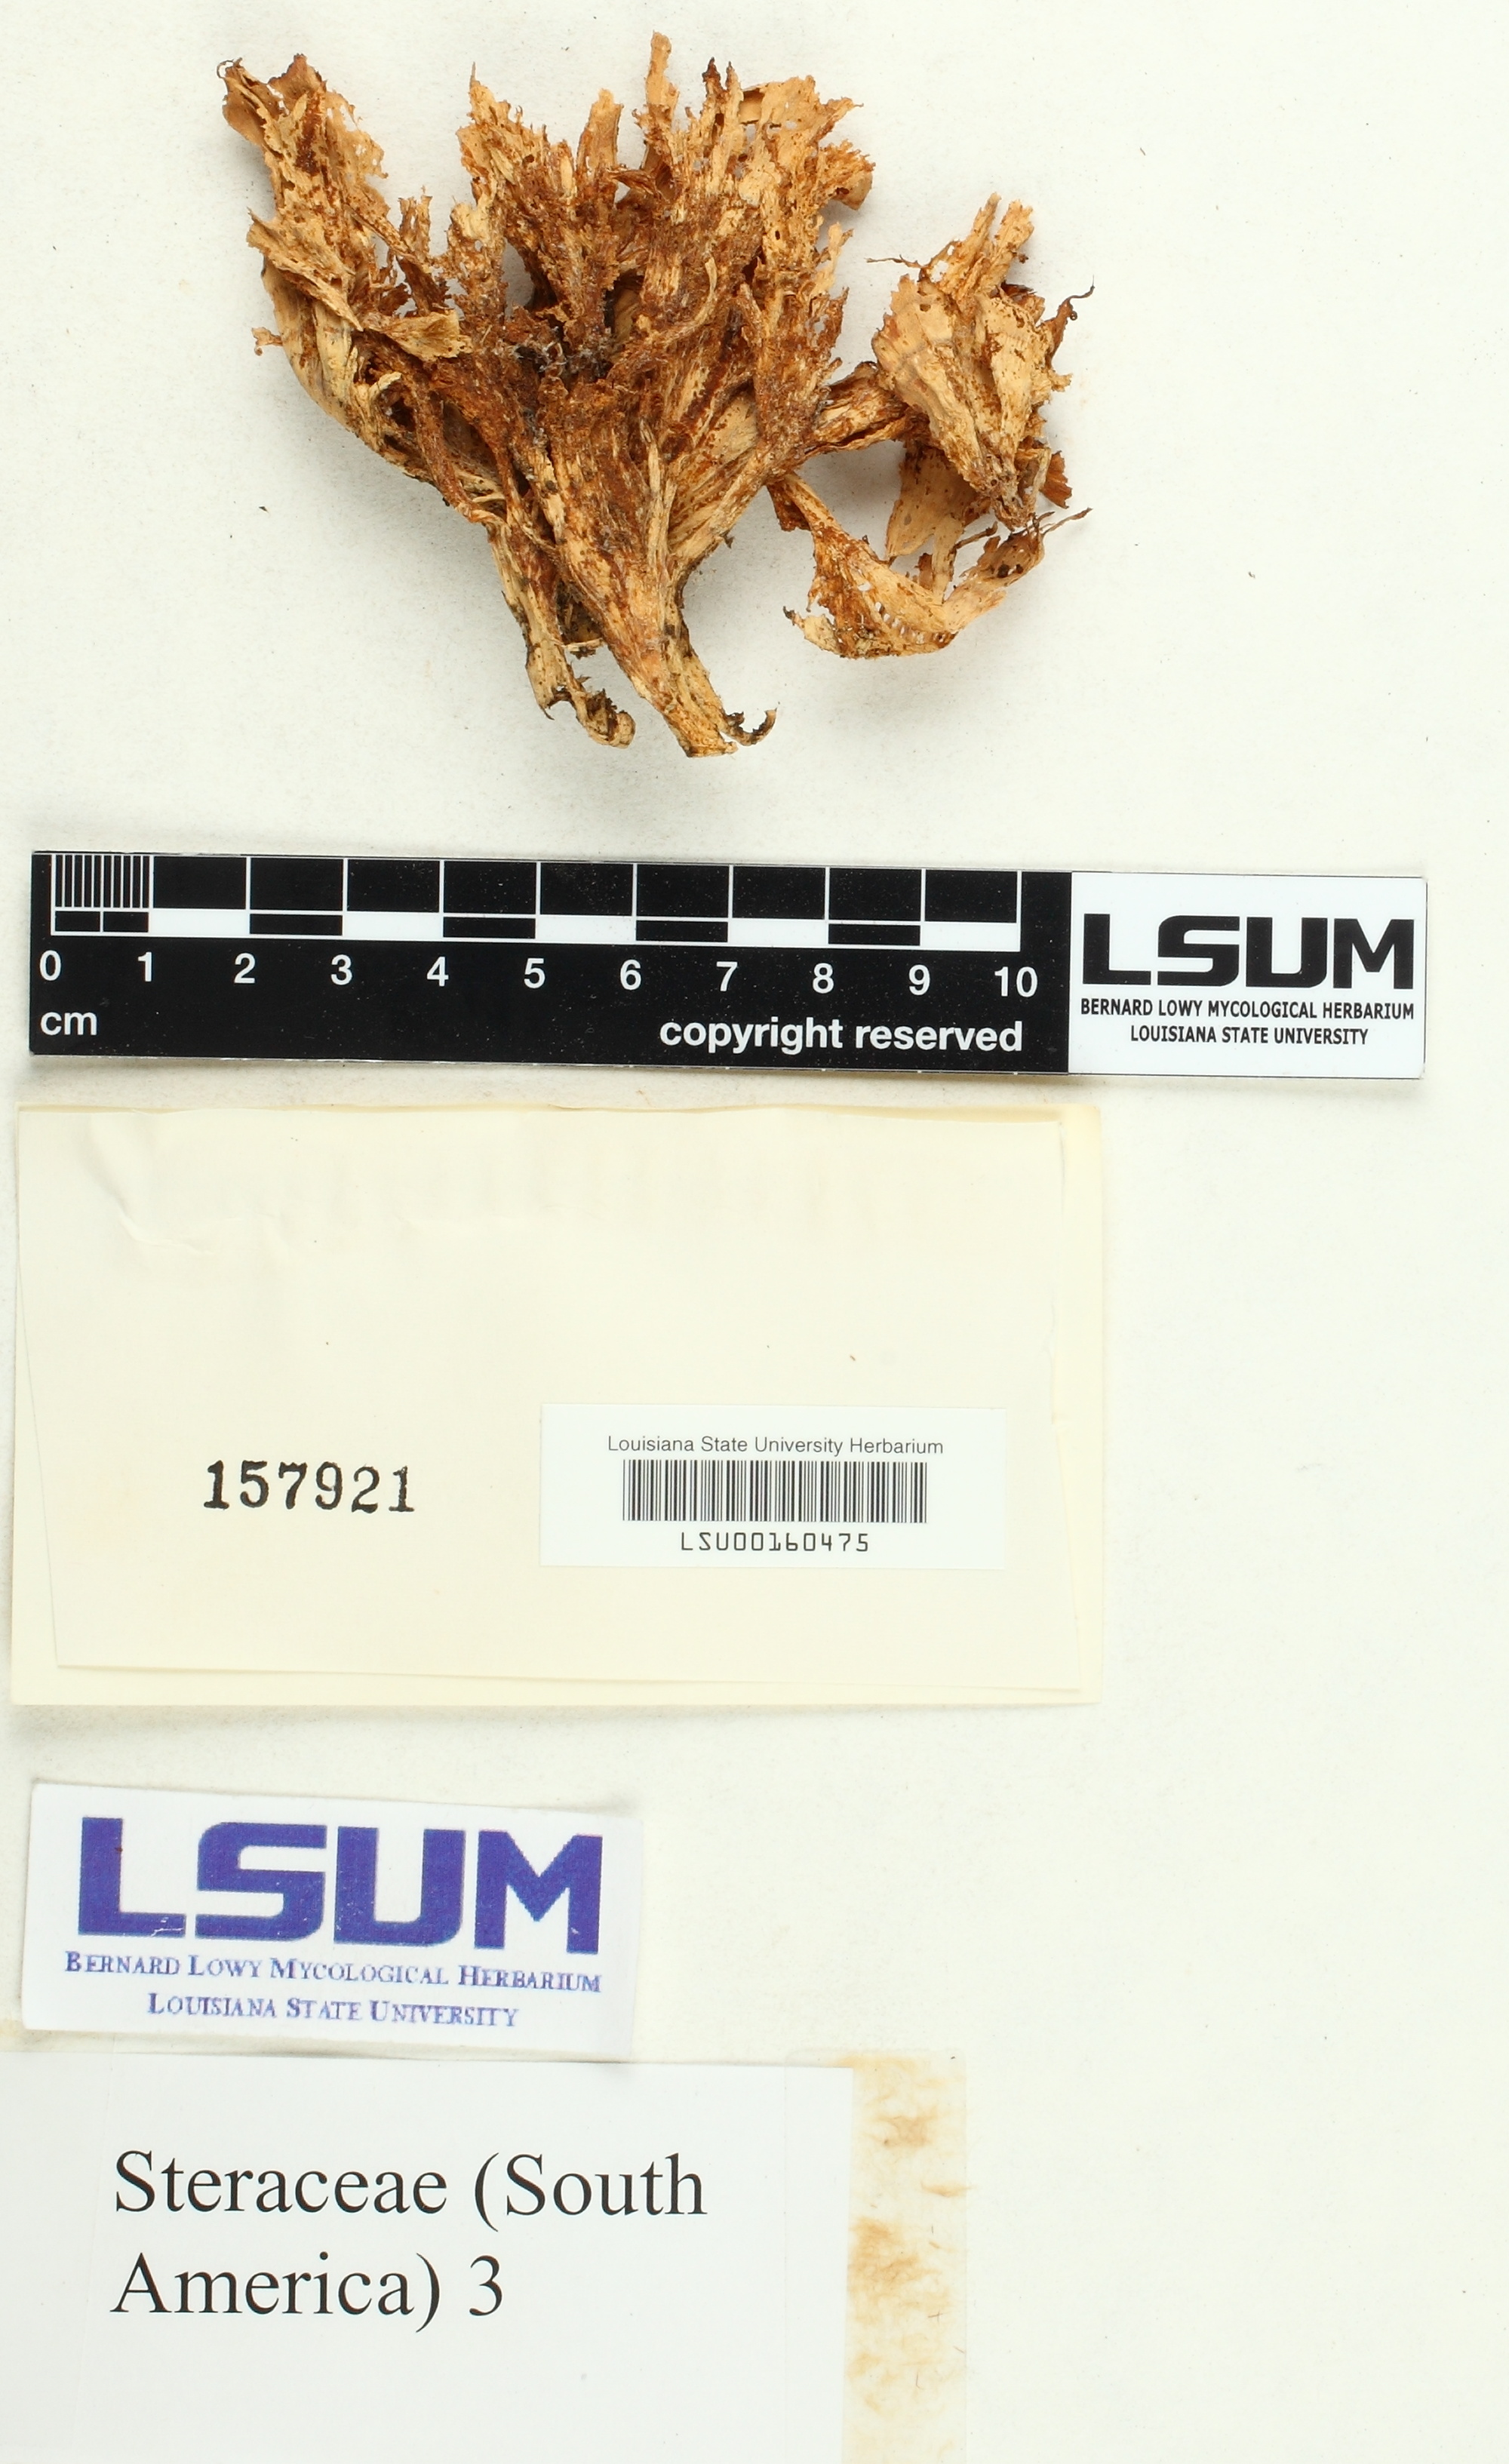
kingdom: Fungi
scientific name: Fungi
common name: Fungi
